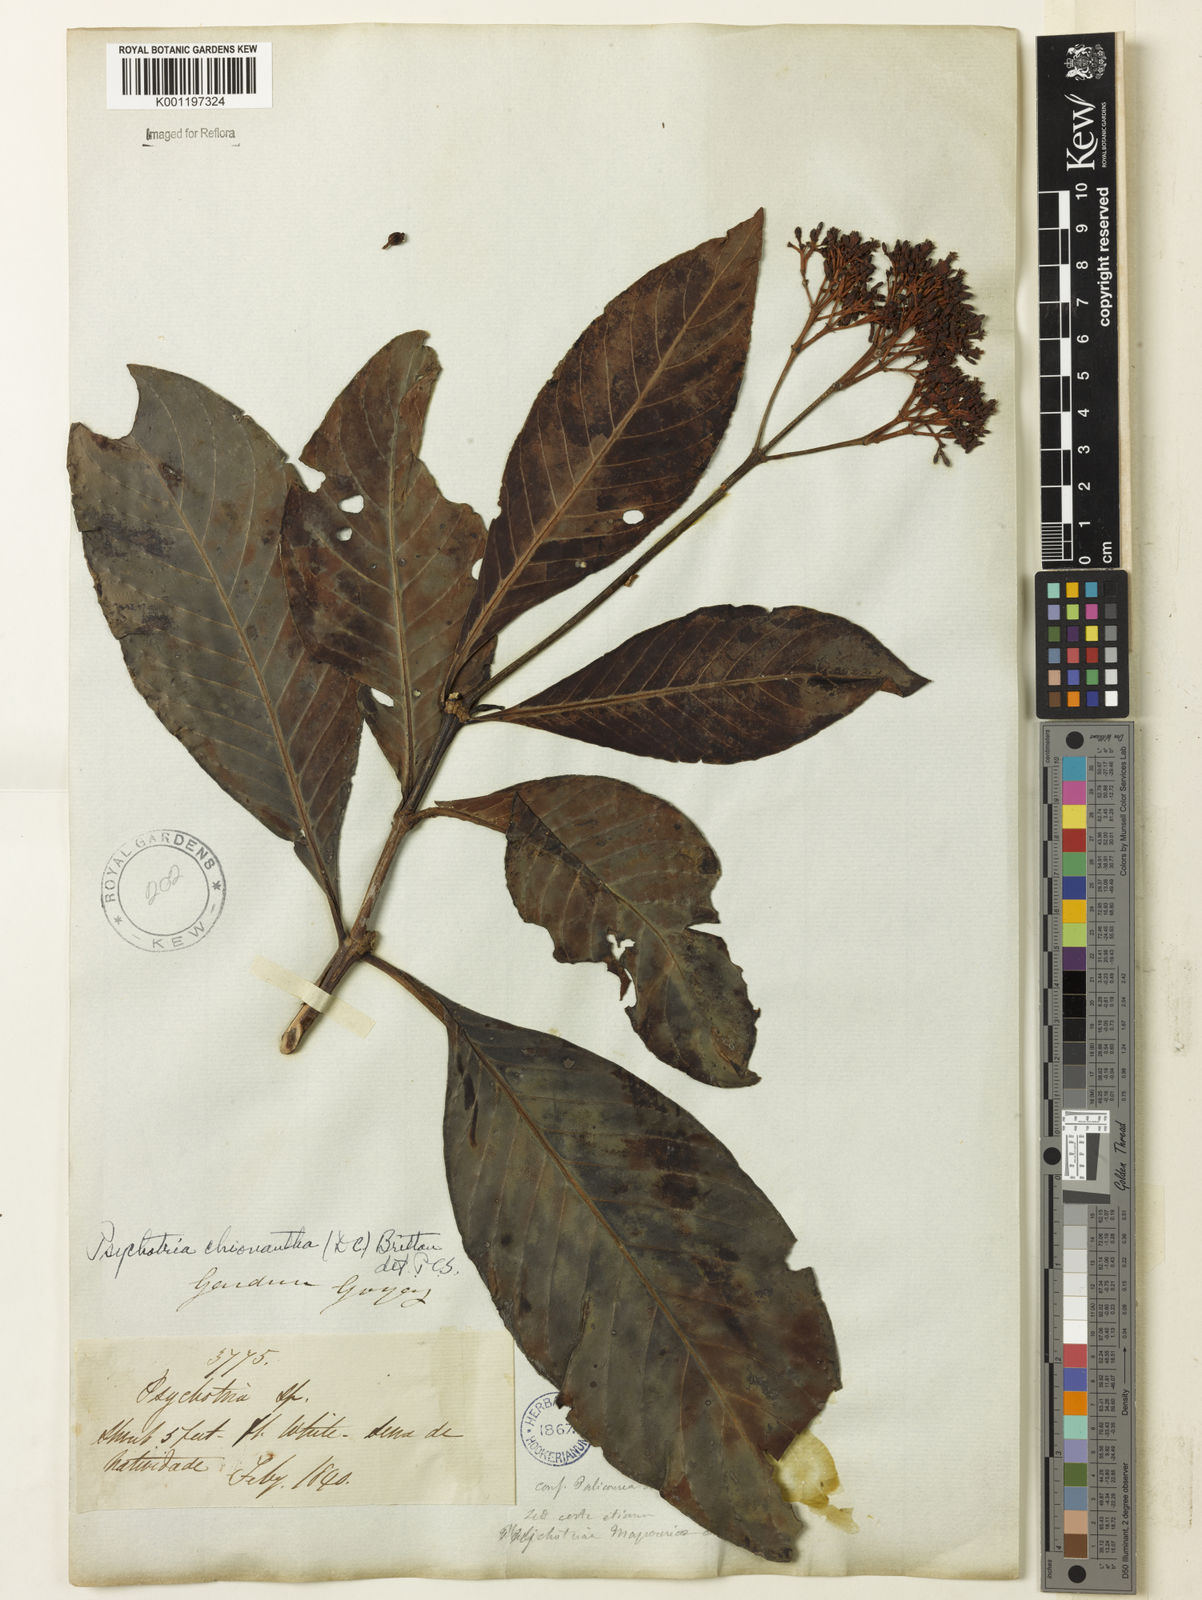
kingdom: Plantae
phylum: Tracheophyta
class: Magnoliopsida
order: Gentianales
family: Rubiaceae
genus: Psychotria
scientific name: Psychotria pedunculosa
